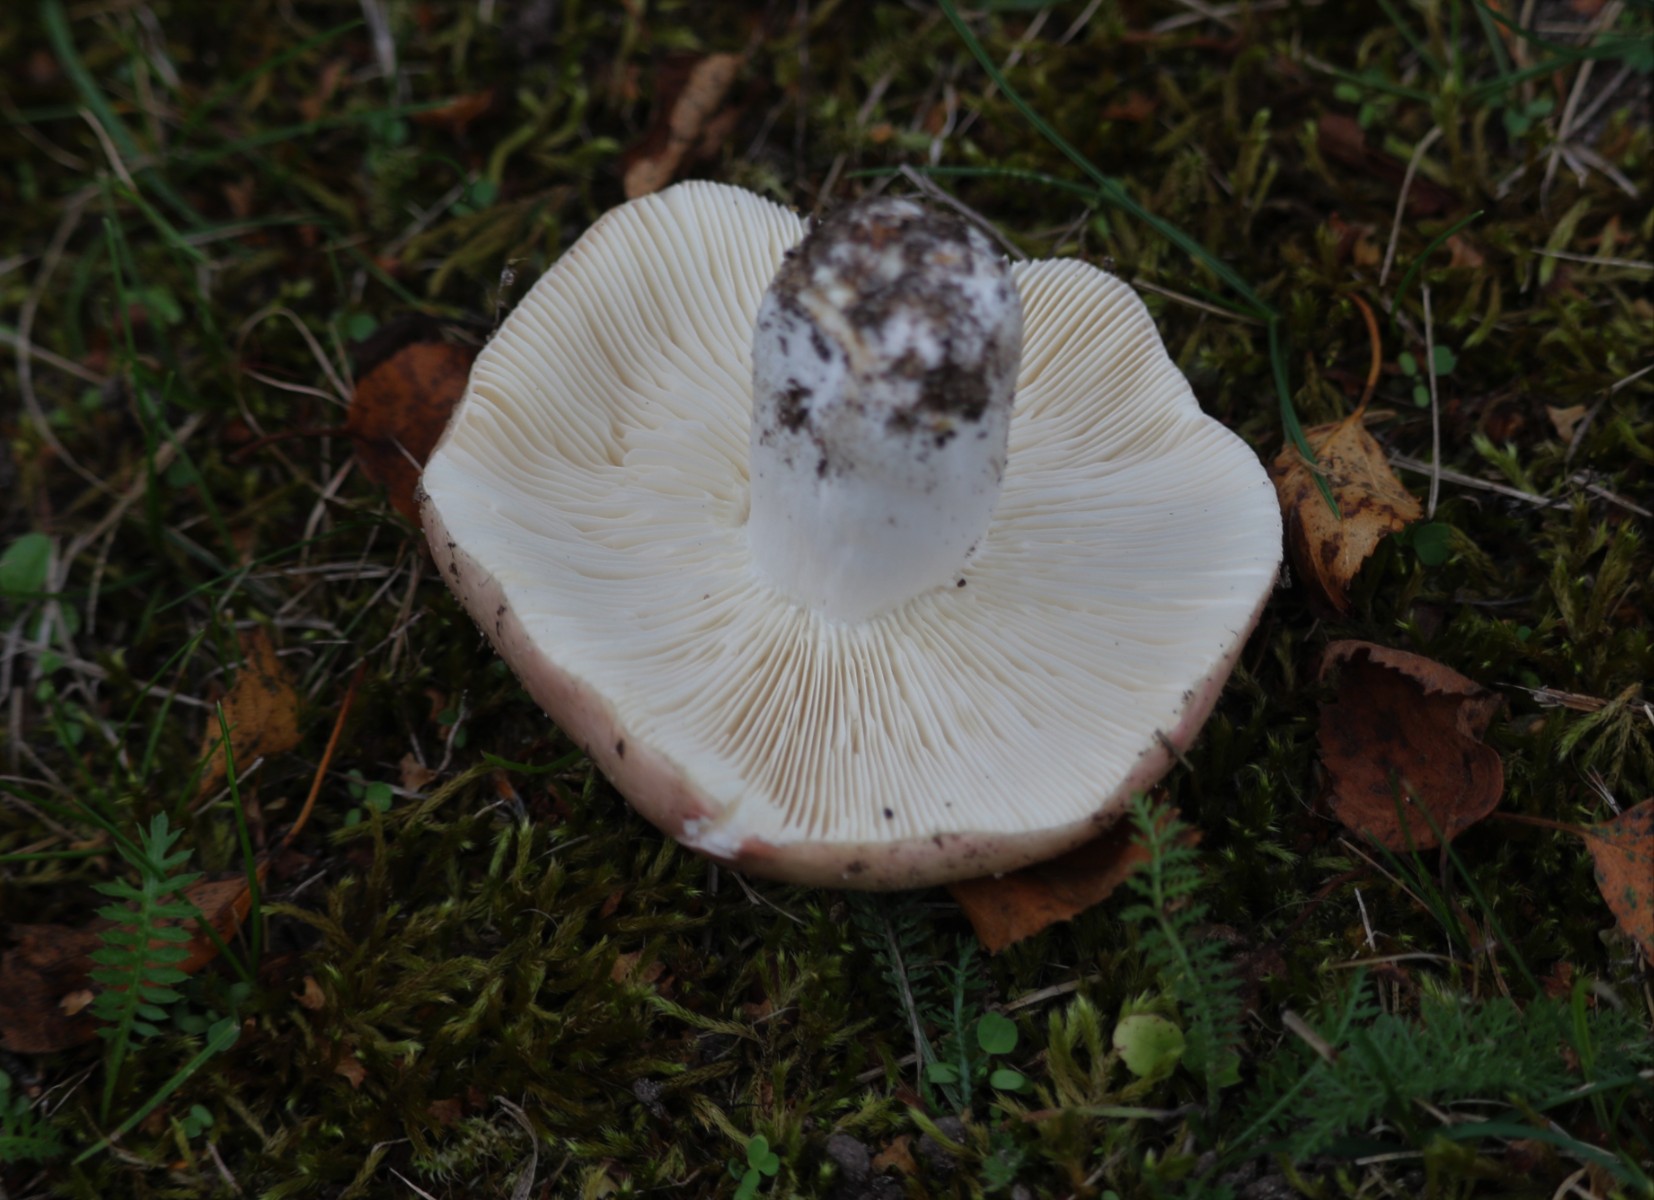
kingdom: Fungi
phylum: Basidiomycota
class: Agaricomycetes
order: Russulales
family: Russulaceae
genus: Russula
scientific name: Russula depallens
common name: falmende skørhat
